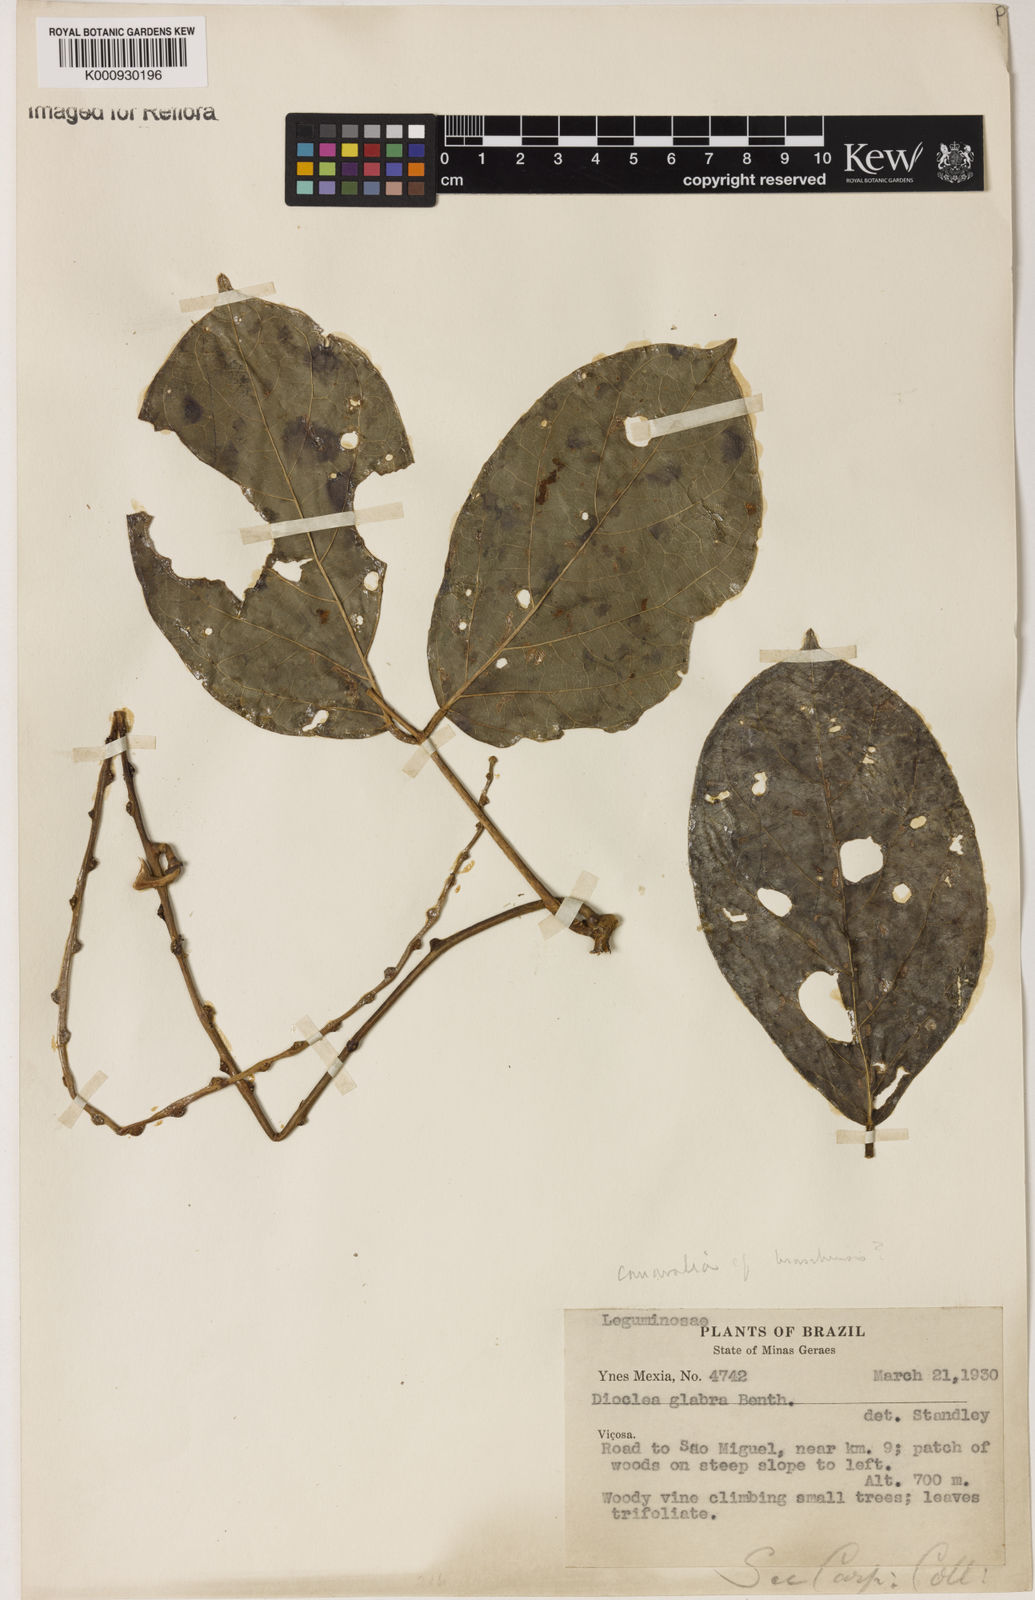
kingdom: Plantae
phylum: Tracheophyta
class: Magnoliopsida
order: Fabales
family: Fabaceae
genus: Canavalia
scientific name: Canavalia
